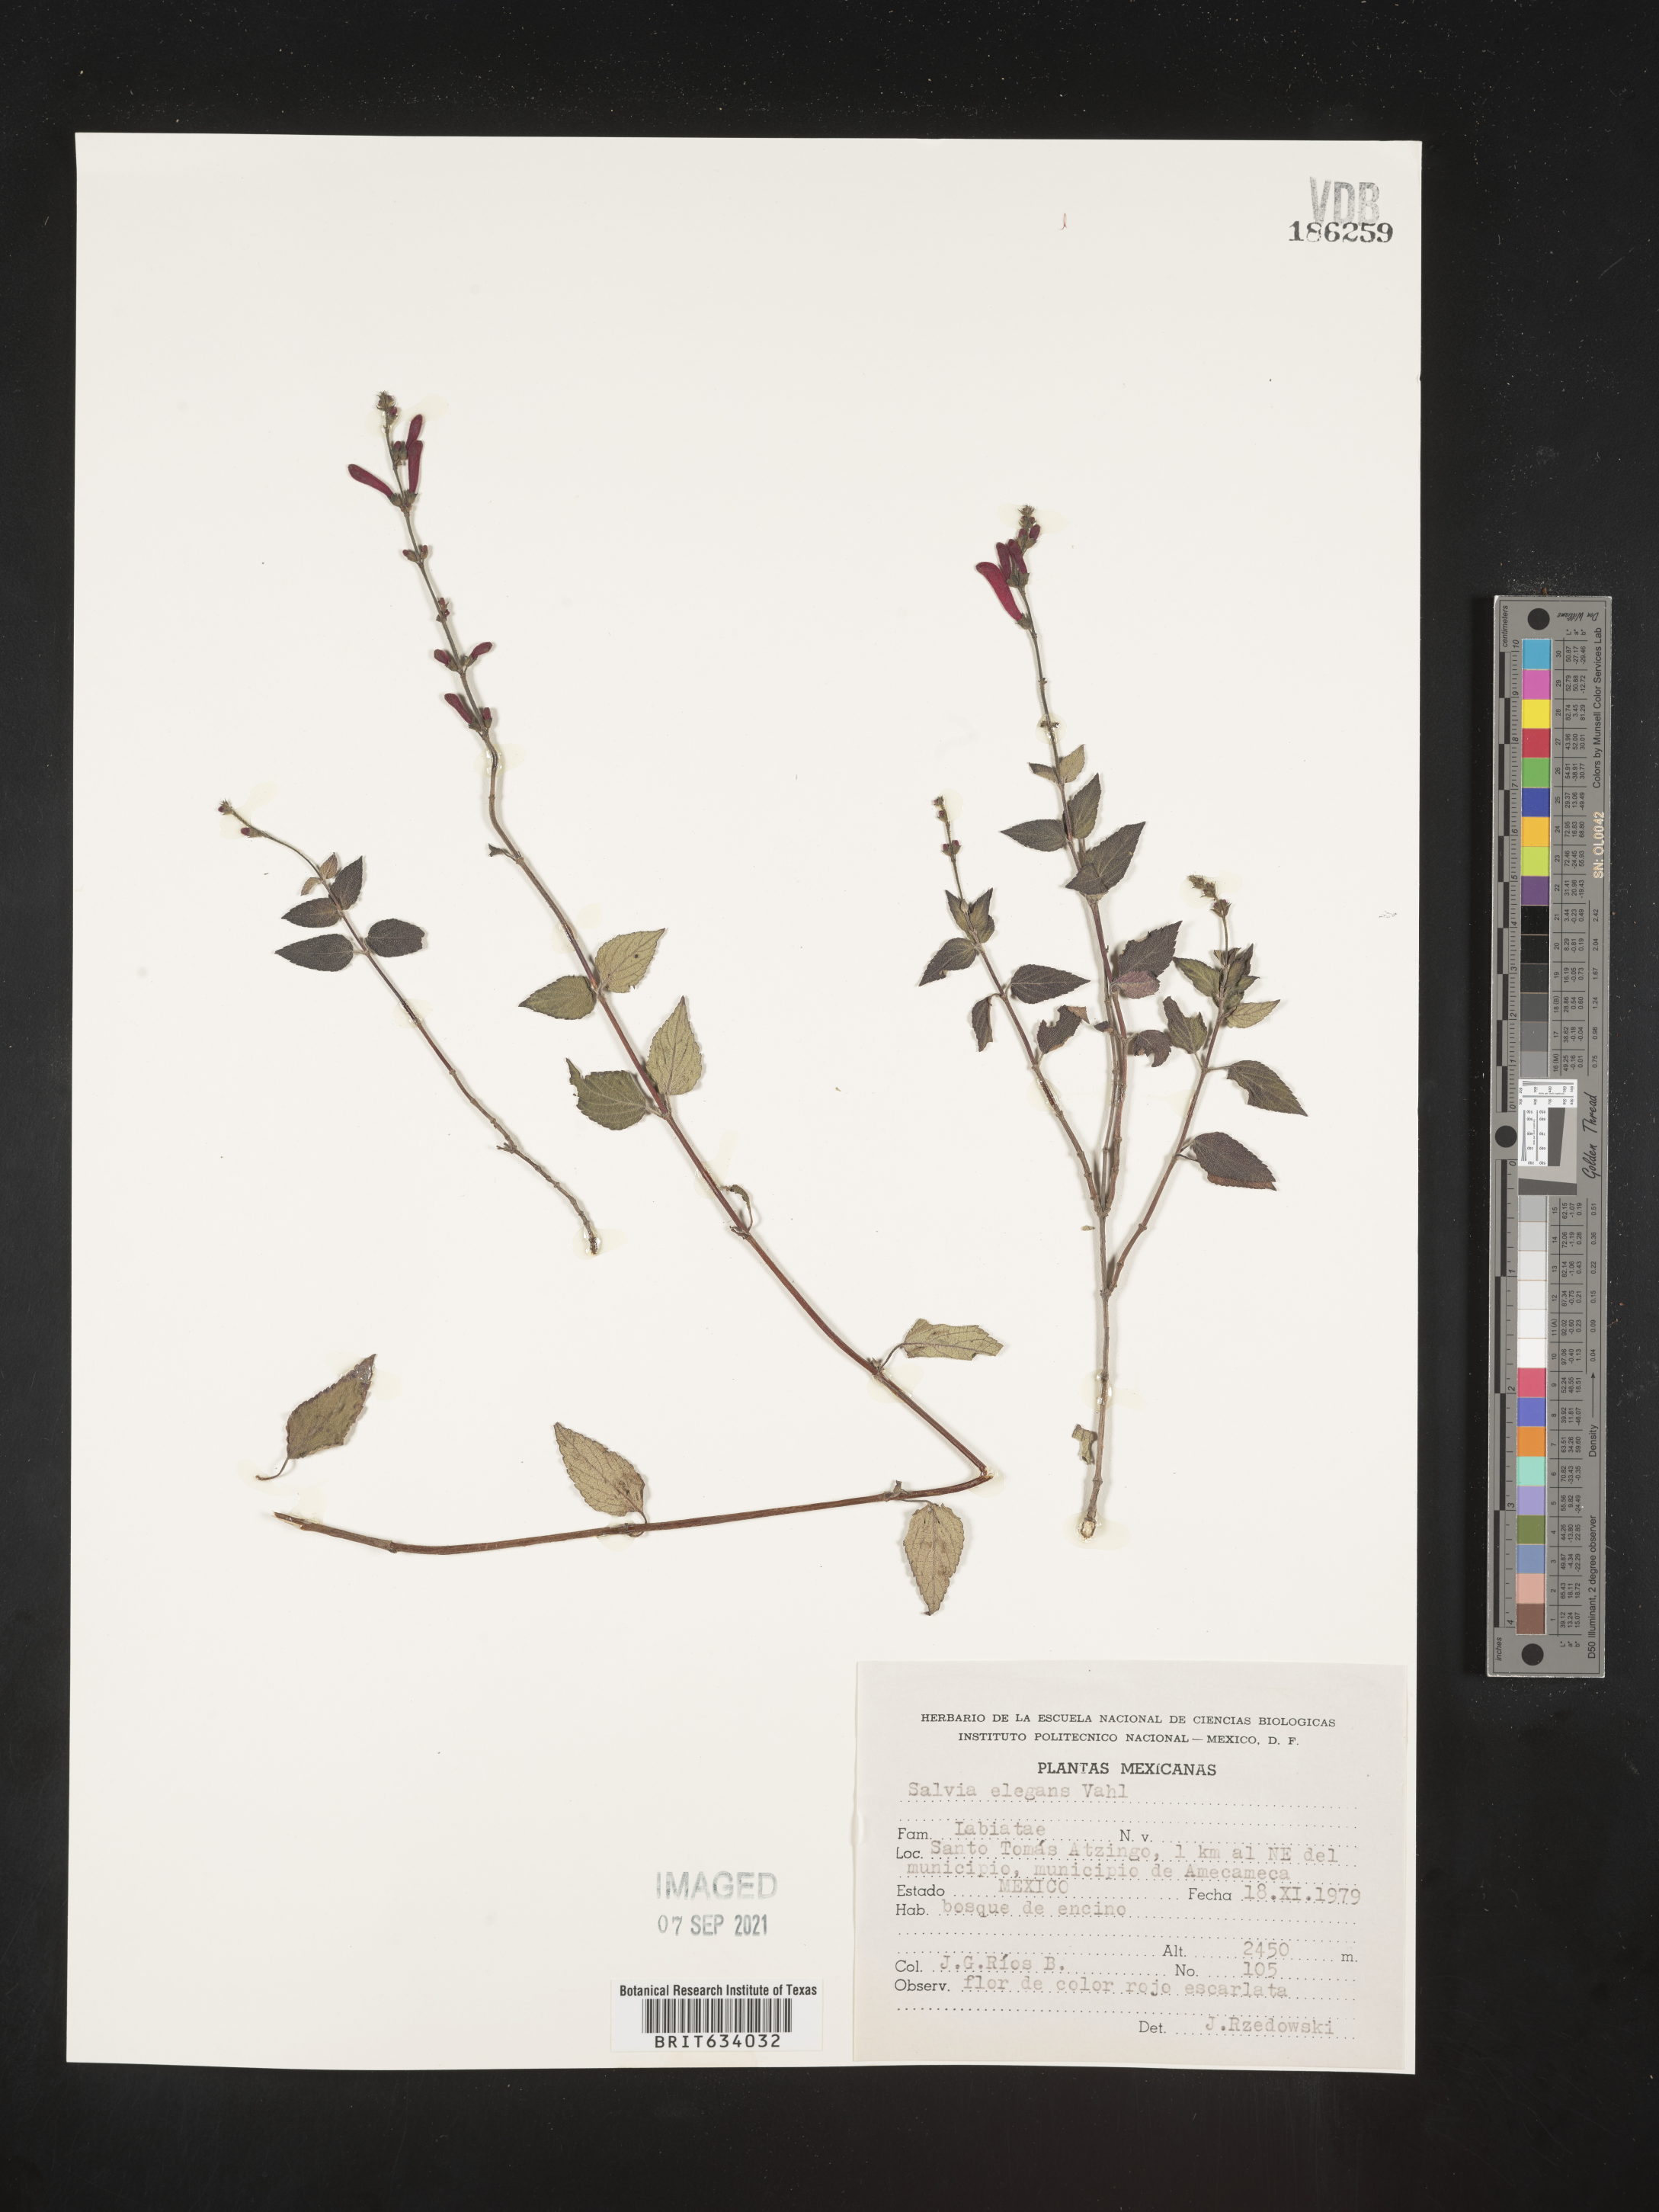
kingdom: Plantae
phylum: Tracheophyta
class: Magnoliopsida
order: Lamiales
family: Lamiaceae
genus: Salvia
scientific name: Salvia
